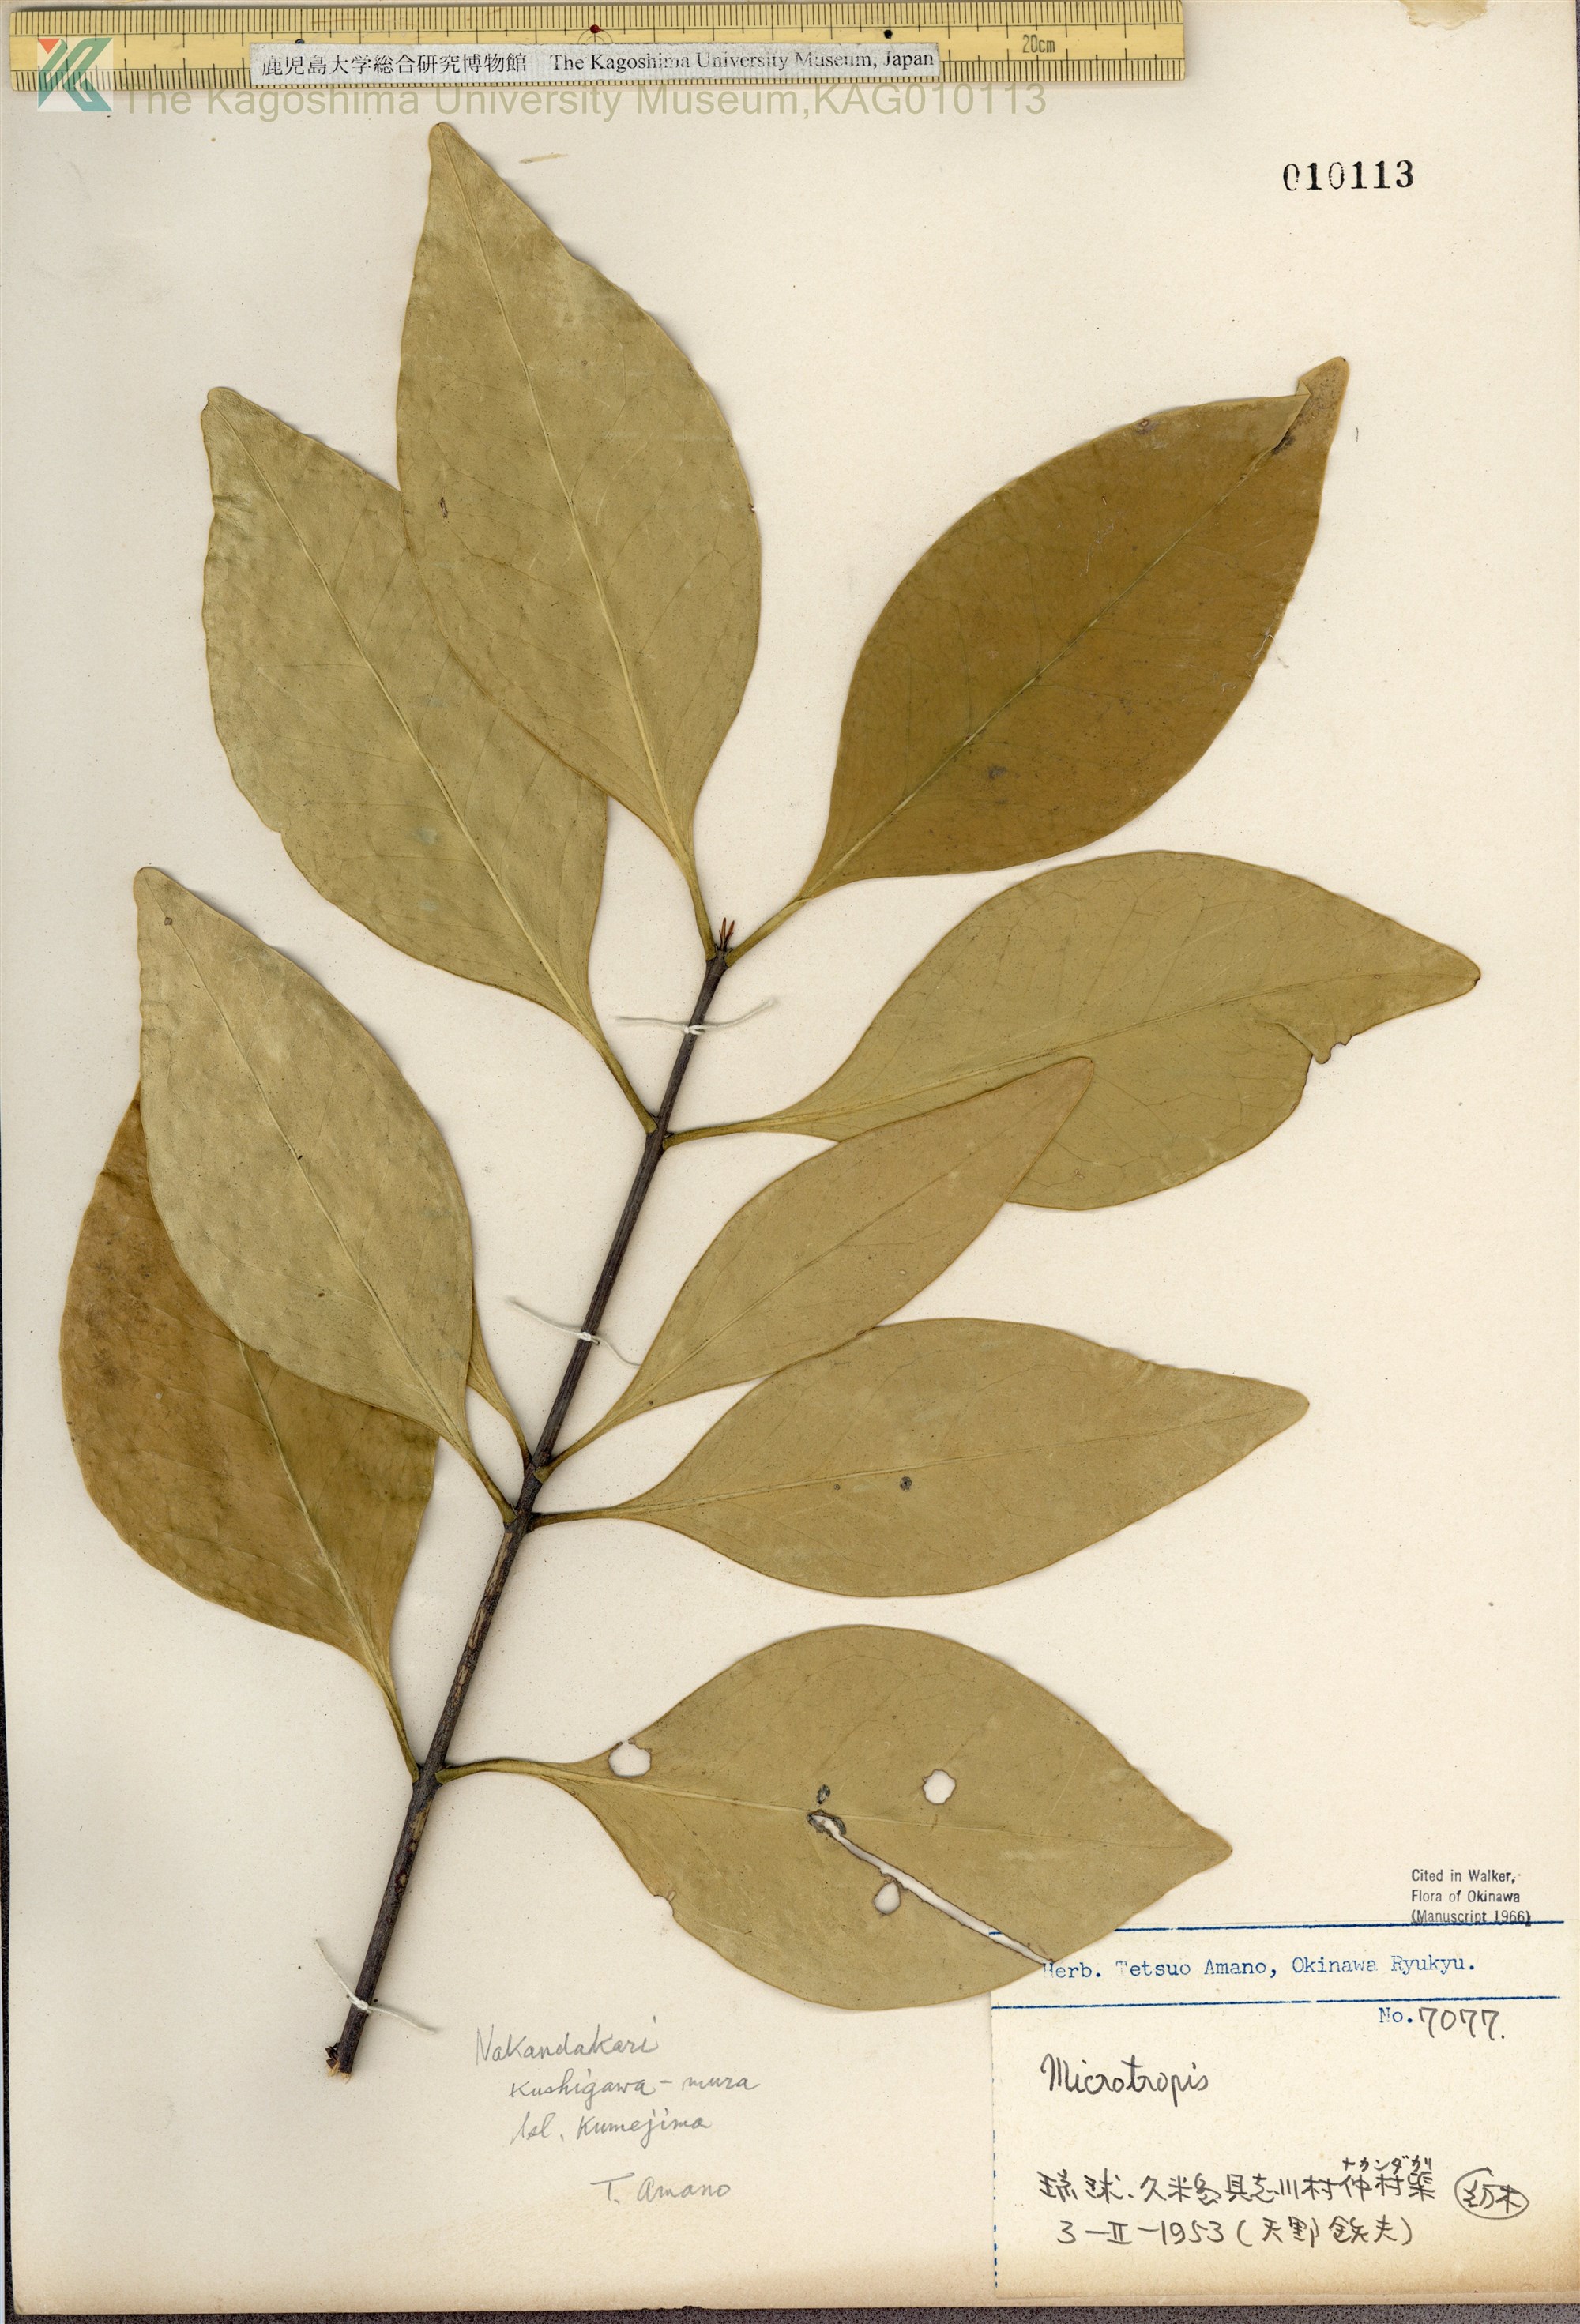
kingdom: Plantae
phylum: Tracheophyta
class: Magnoliopsida
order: Celastrales
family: Celastraceae
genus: Microtropis
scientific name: Microtropis japonica
